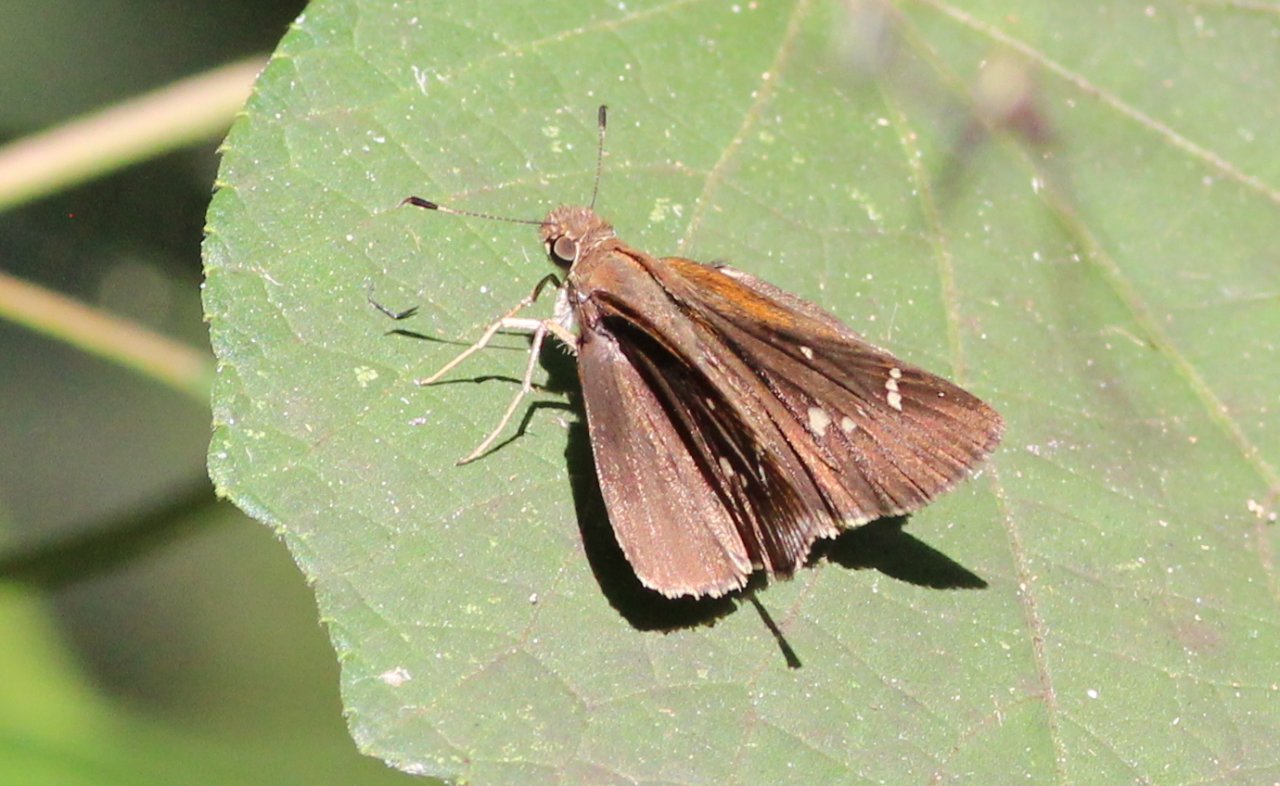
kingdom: Animalia
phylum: Arthropoda
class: Insecta
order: Lepidoptera
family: Hesperiidae
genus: Polites
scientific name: Polites themistocles
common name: Tawny-edged Skipper
